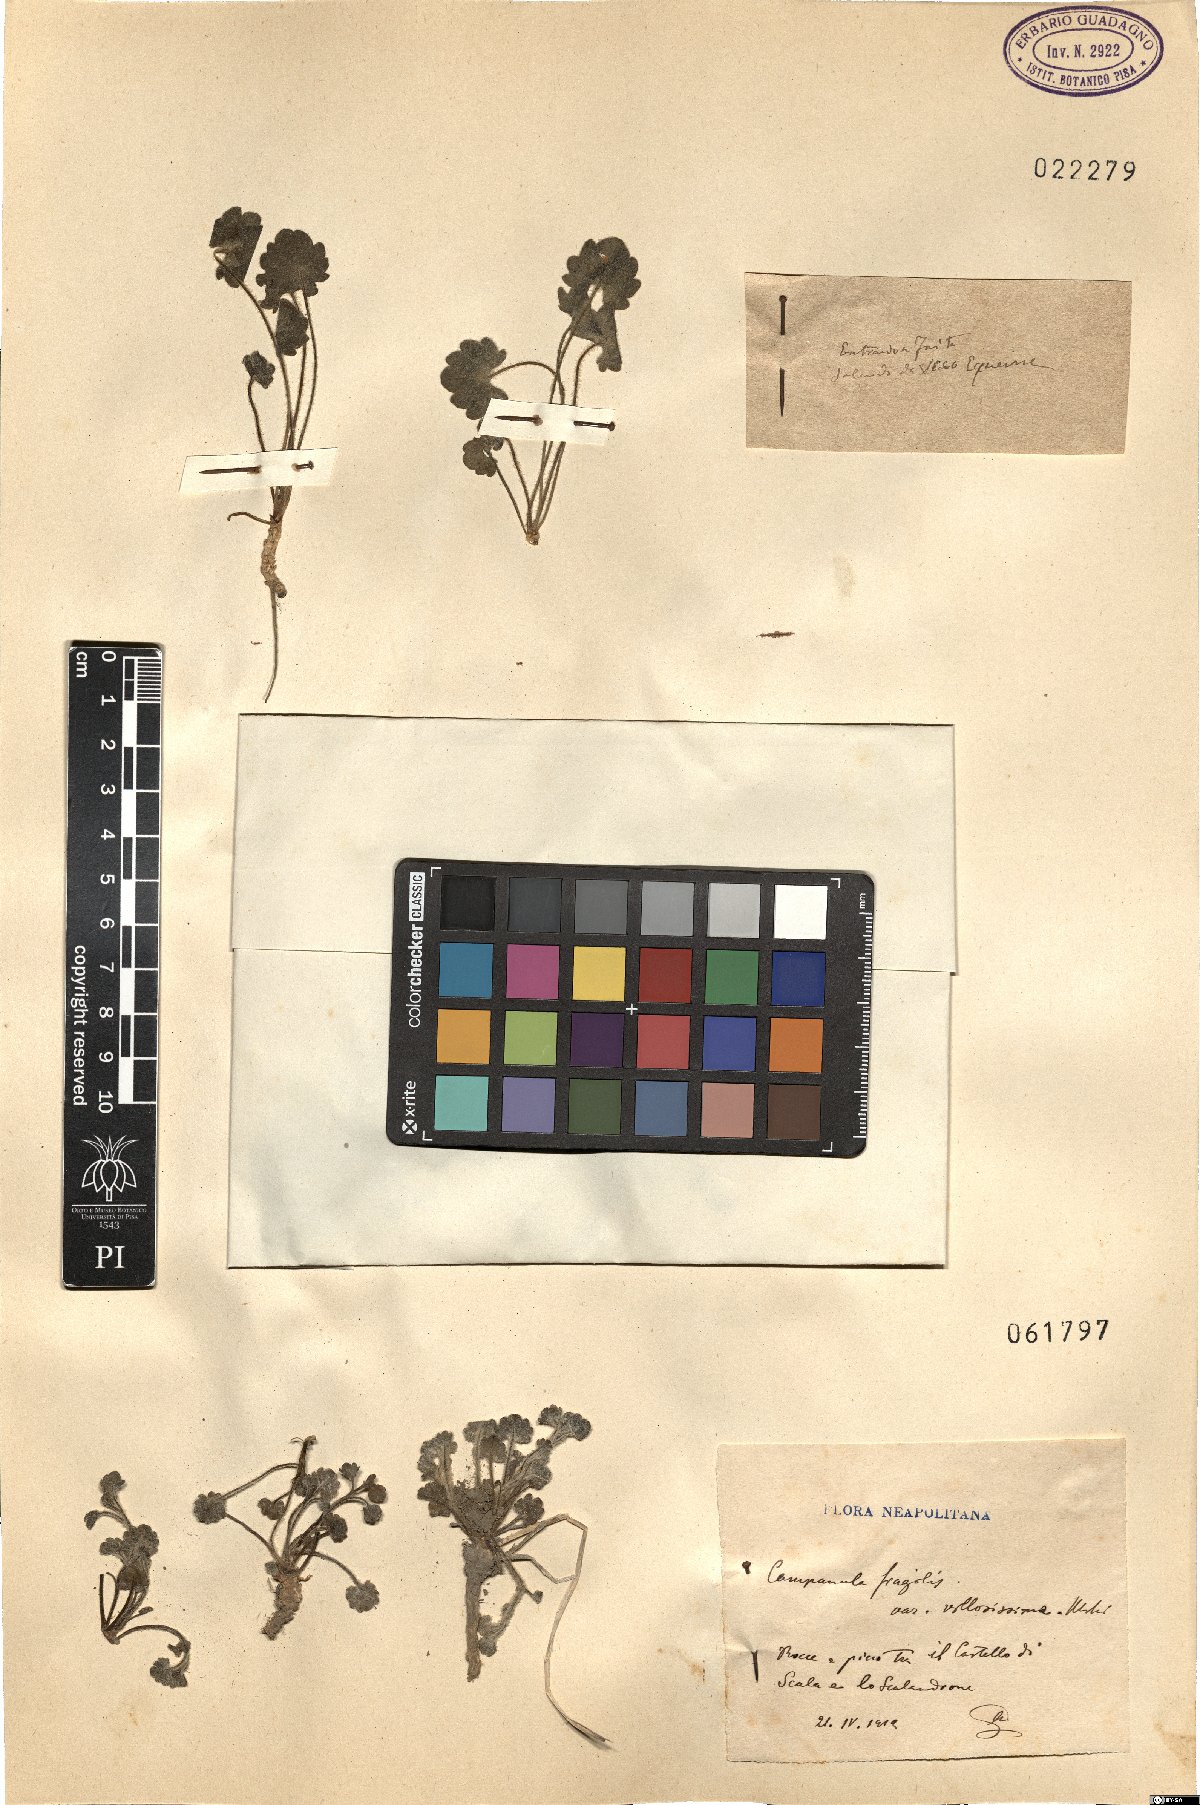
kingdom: Plantae
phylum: Tracheophyta
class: Magnoliopsida
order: Asterales
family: Campanulaceae
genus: Campanula
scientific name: Campanula fragilis
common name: Italian bellflower
